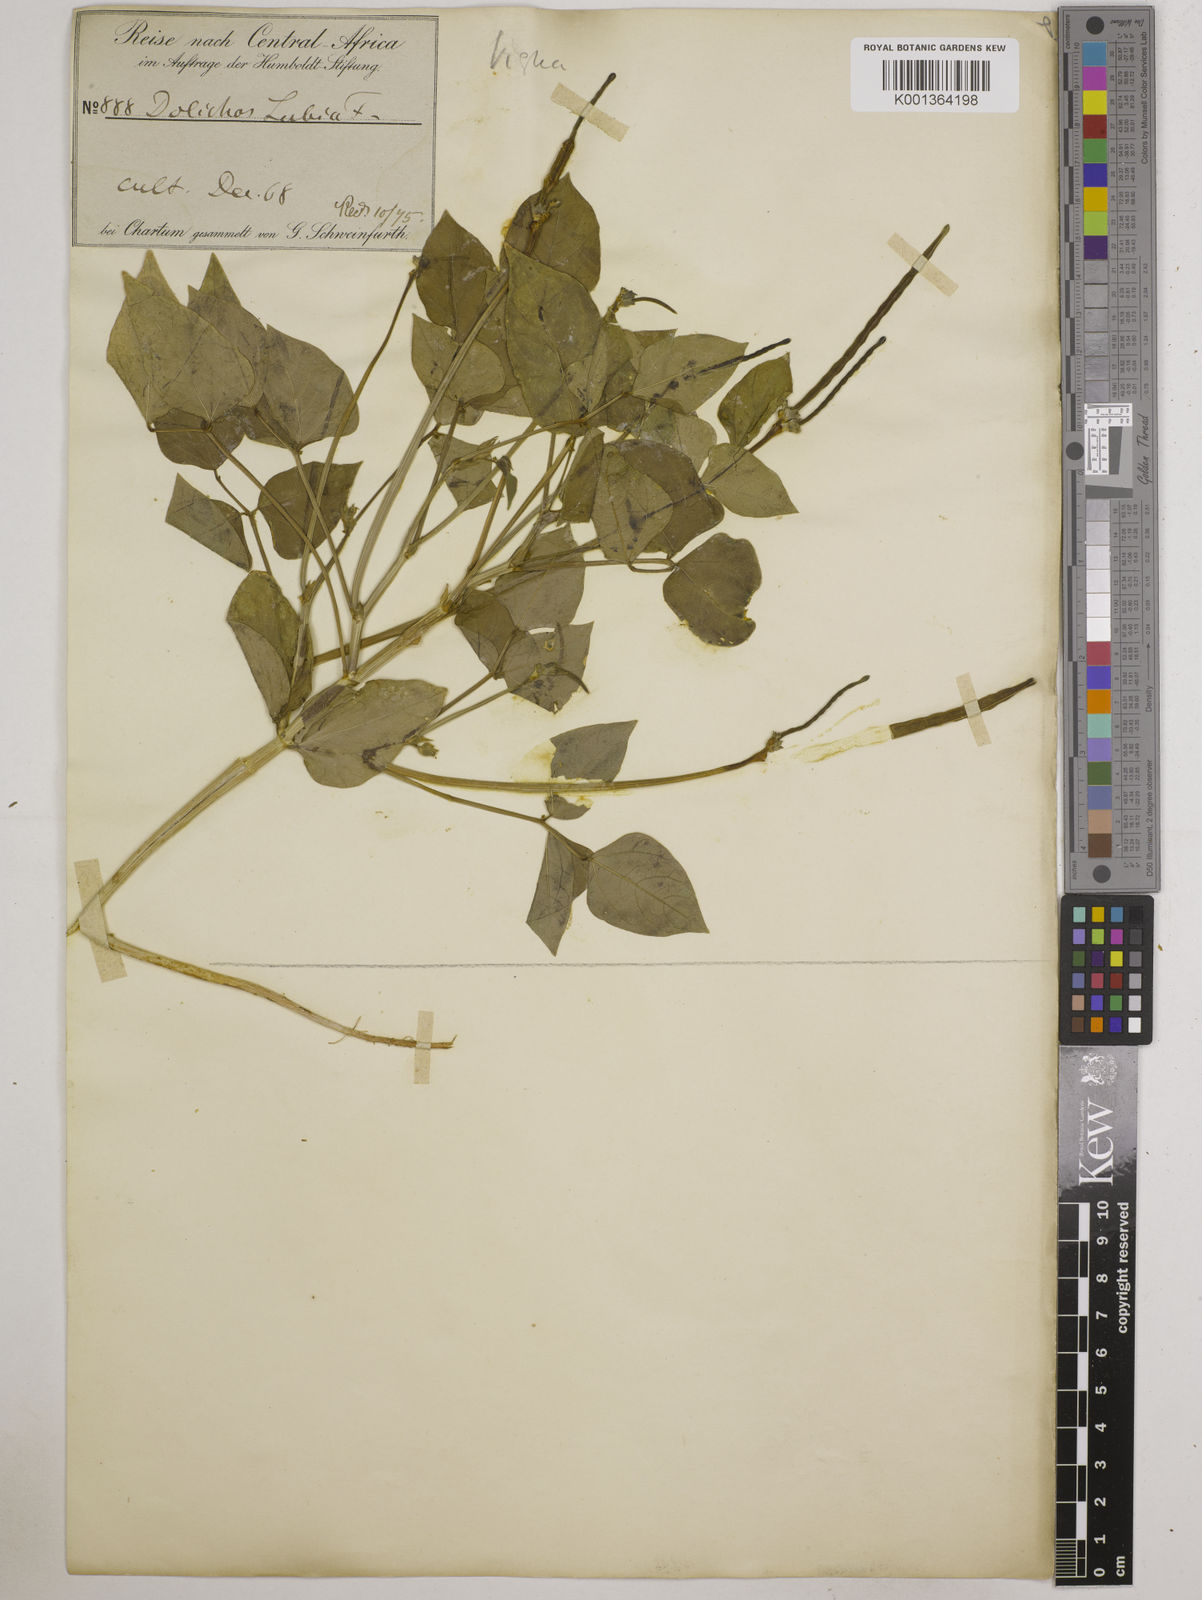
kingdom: Plantae
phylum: Tracheophyta
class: Magnoliopsida
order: Fabales
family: Fabaceae
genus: Vigna
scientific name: Vigna
